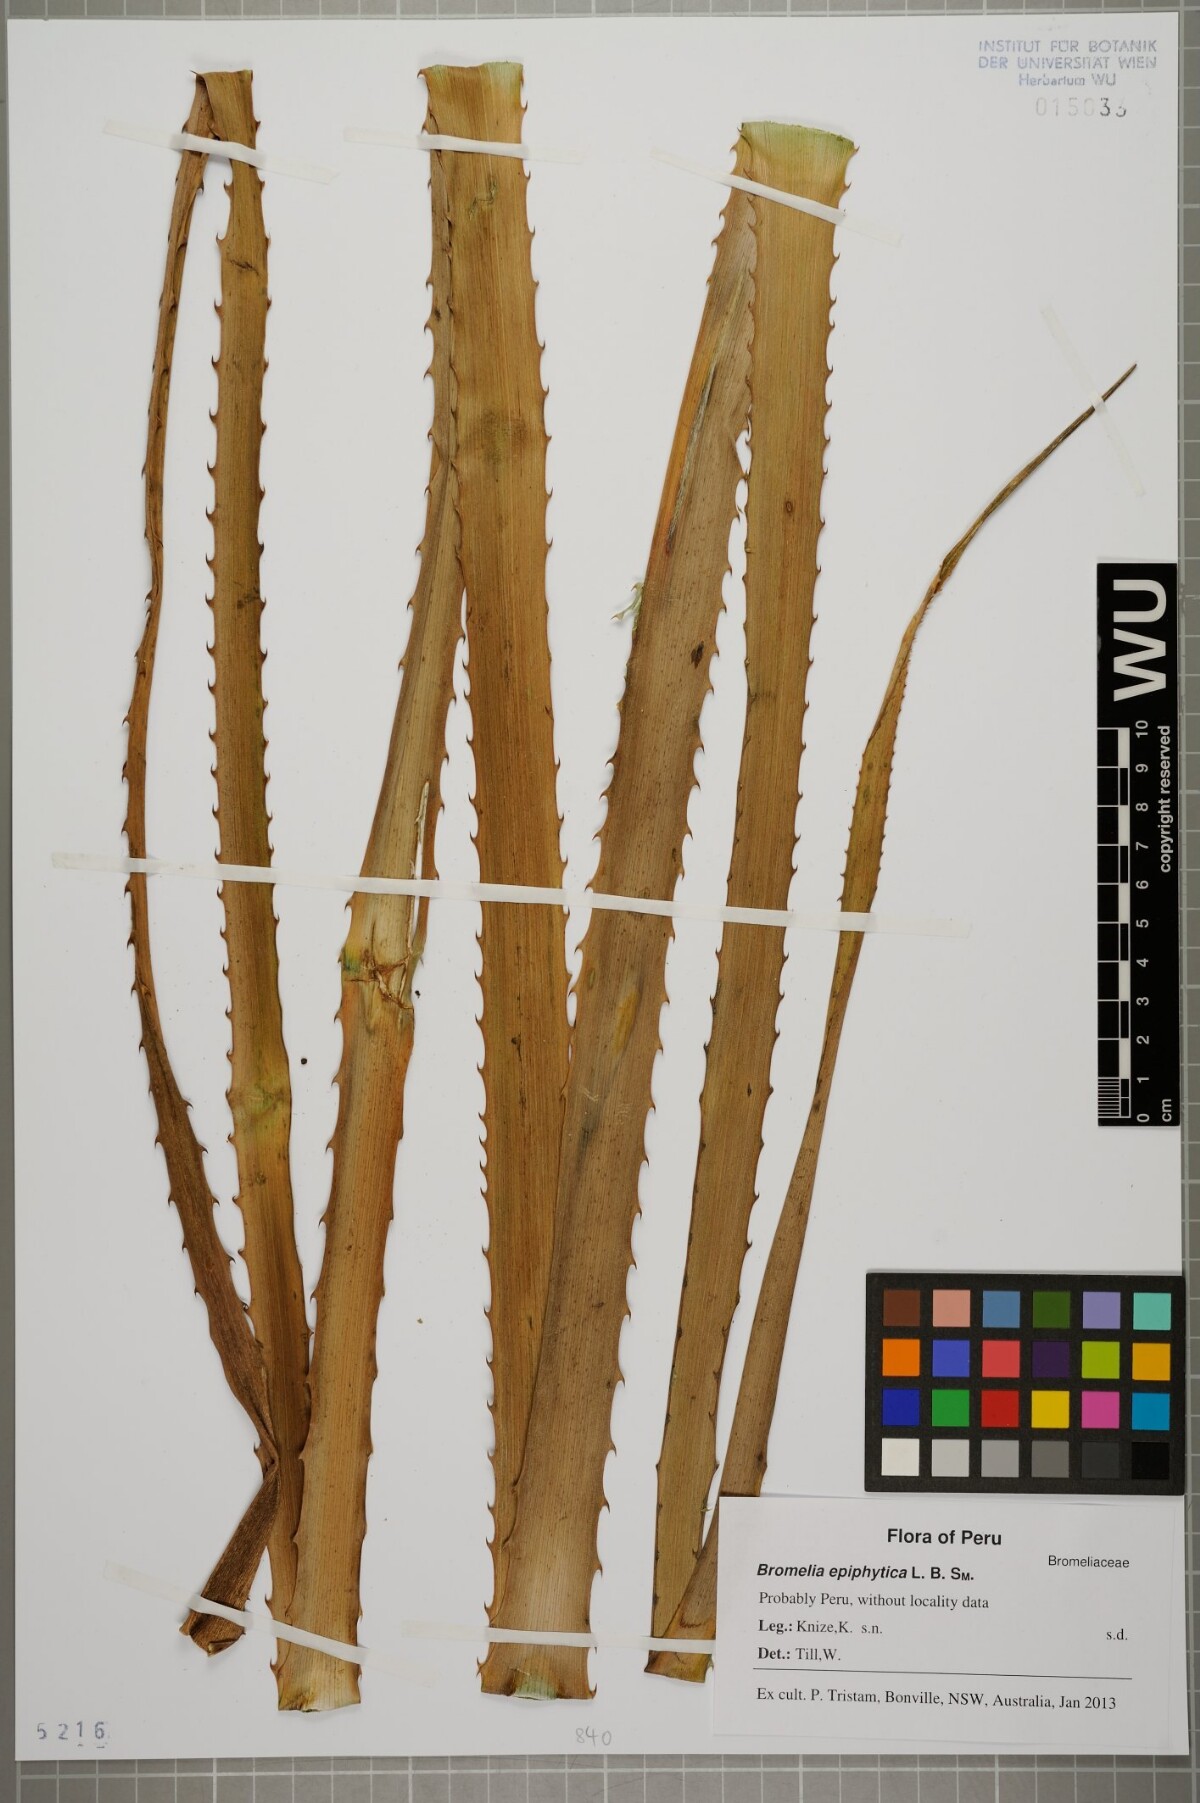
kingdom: Plantae
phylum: Tracheophyta
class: Liliopsida
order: Poales
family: Bromeliaceae
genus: Bromelia
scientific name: Bromelia epiphytica
